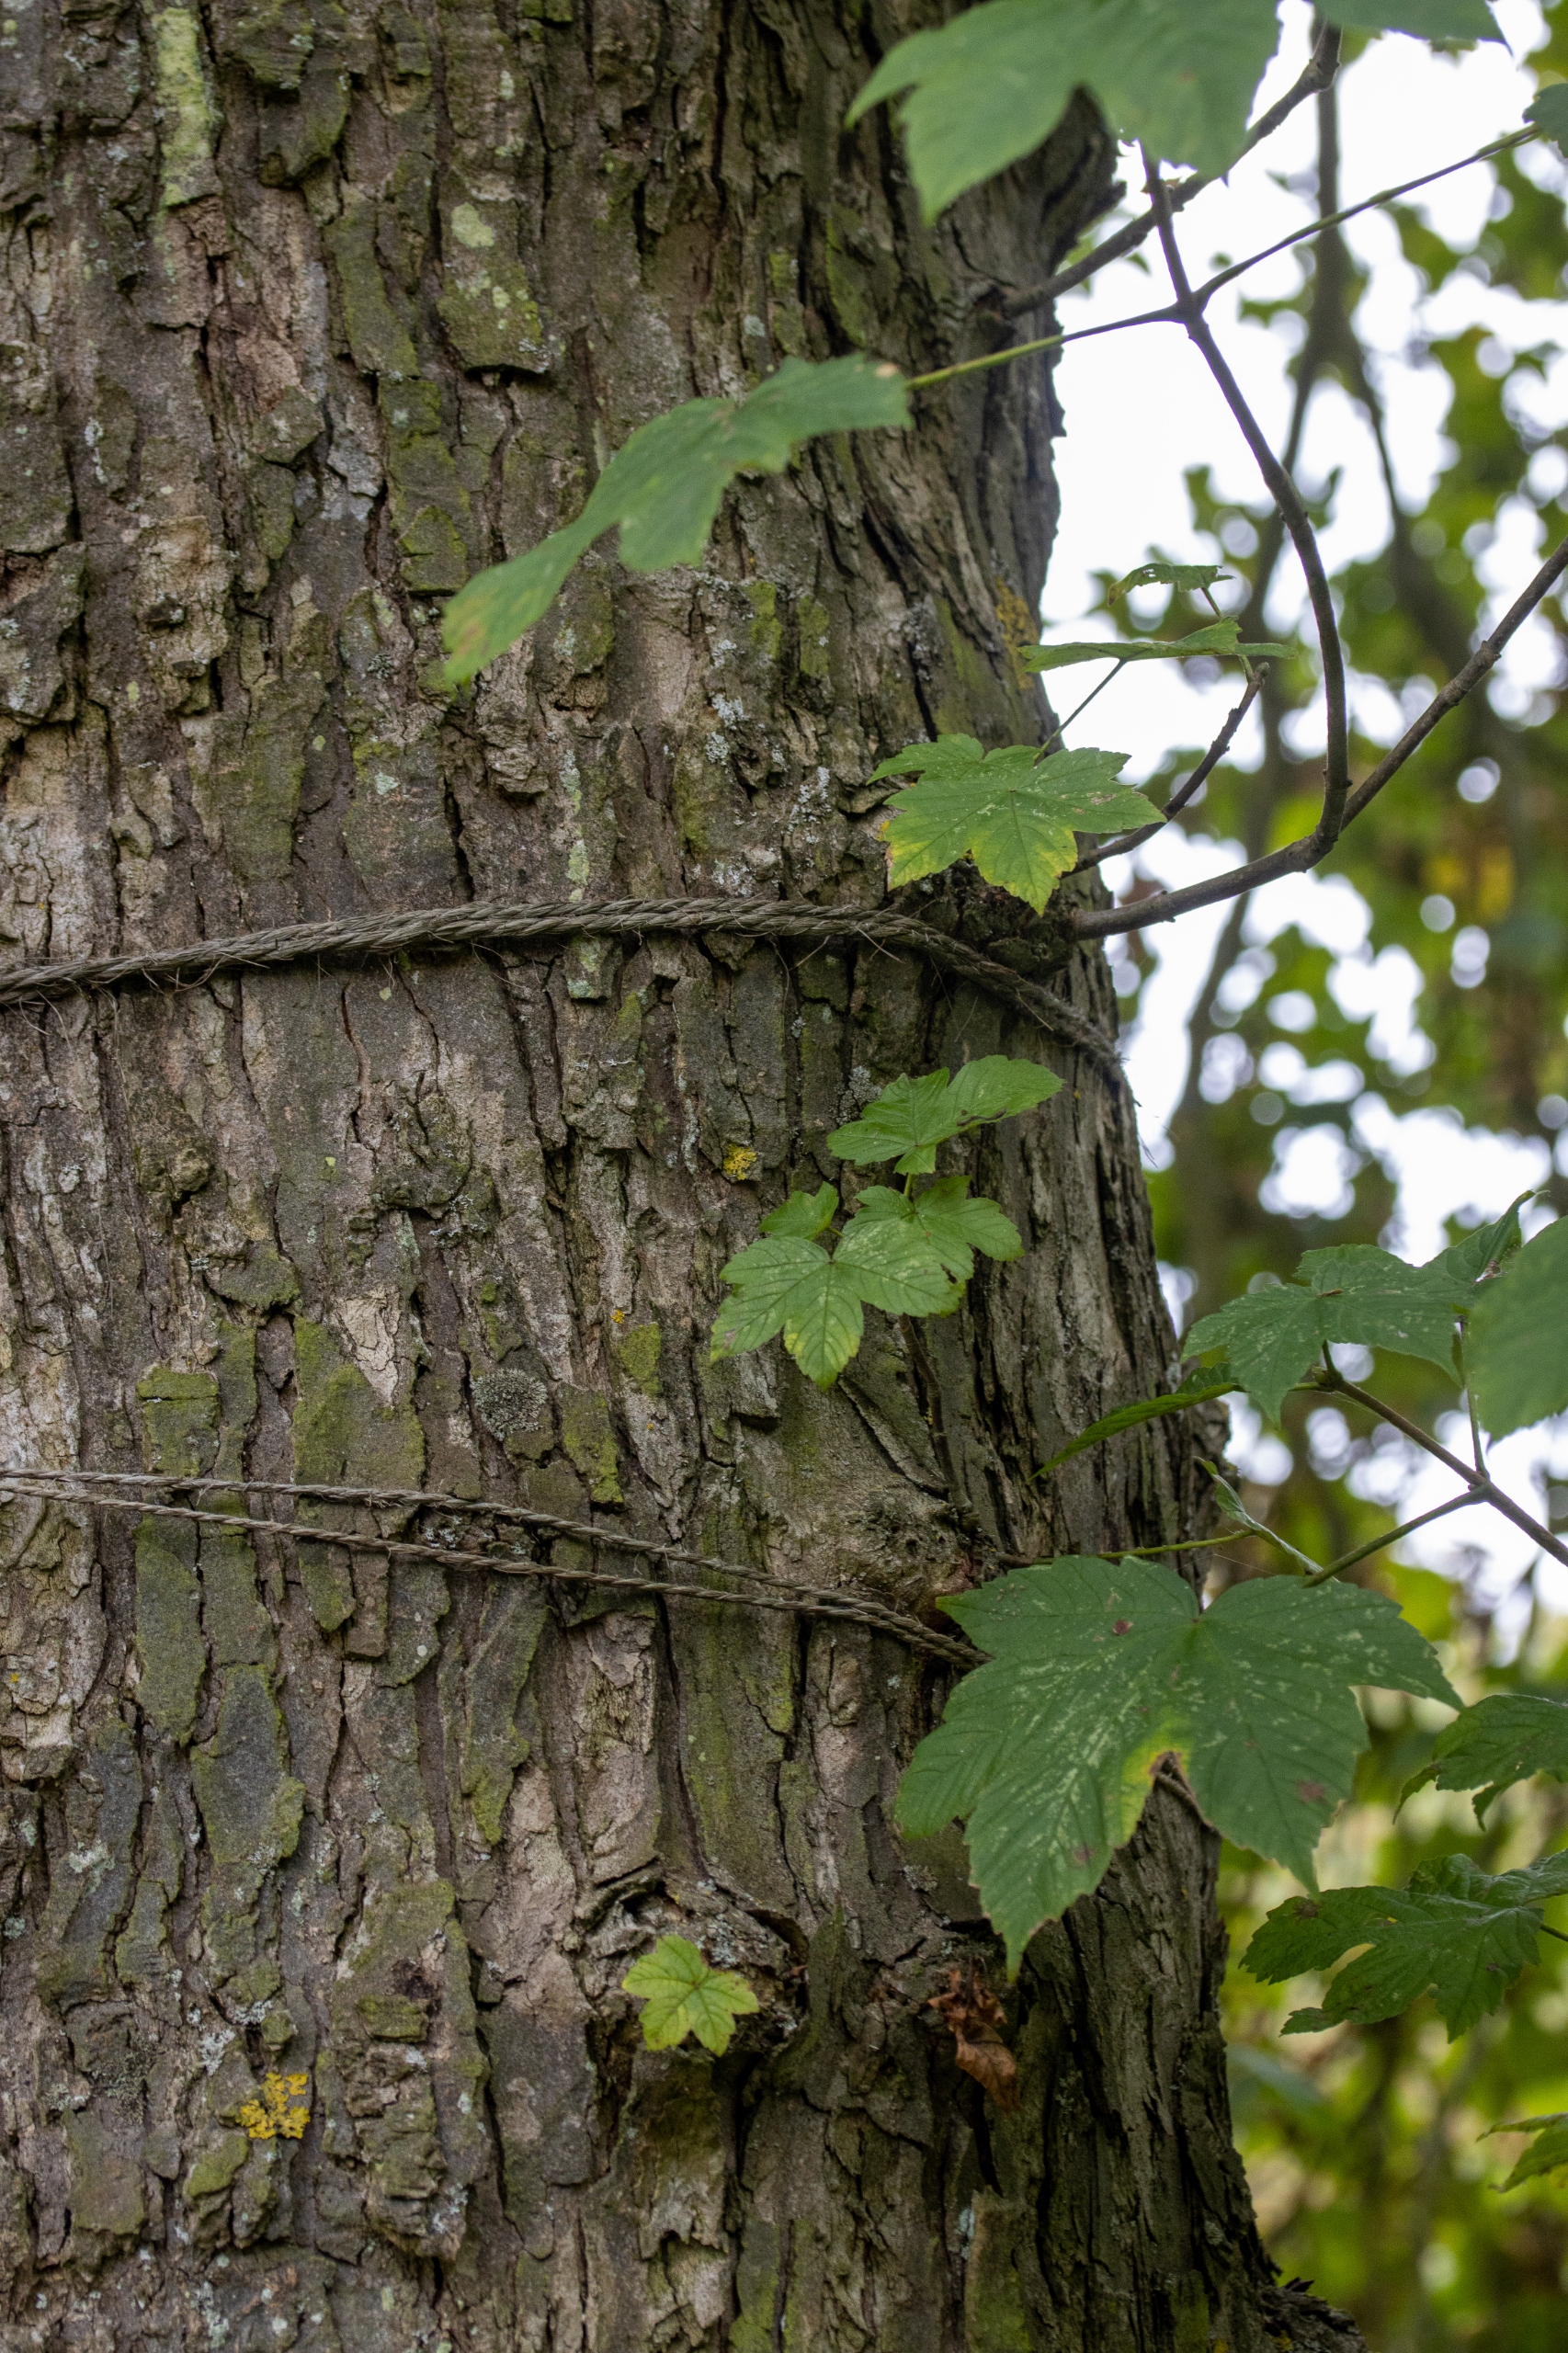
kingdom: Plantae
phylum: Tracheophyta
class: Magnoliopsida
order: Sapindales
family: Sapindaceae
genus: Acer
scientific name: Acer pseudoplatanus
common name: Ahorn
